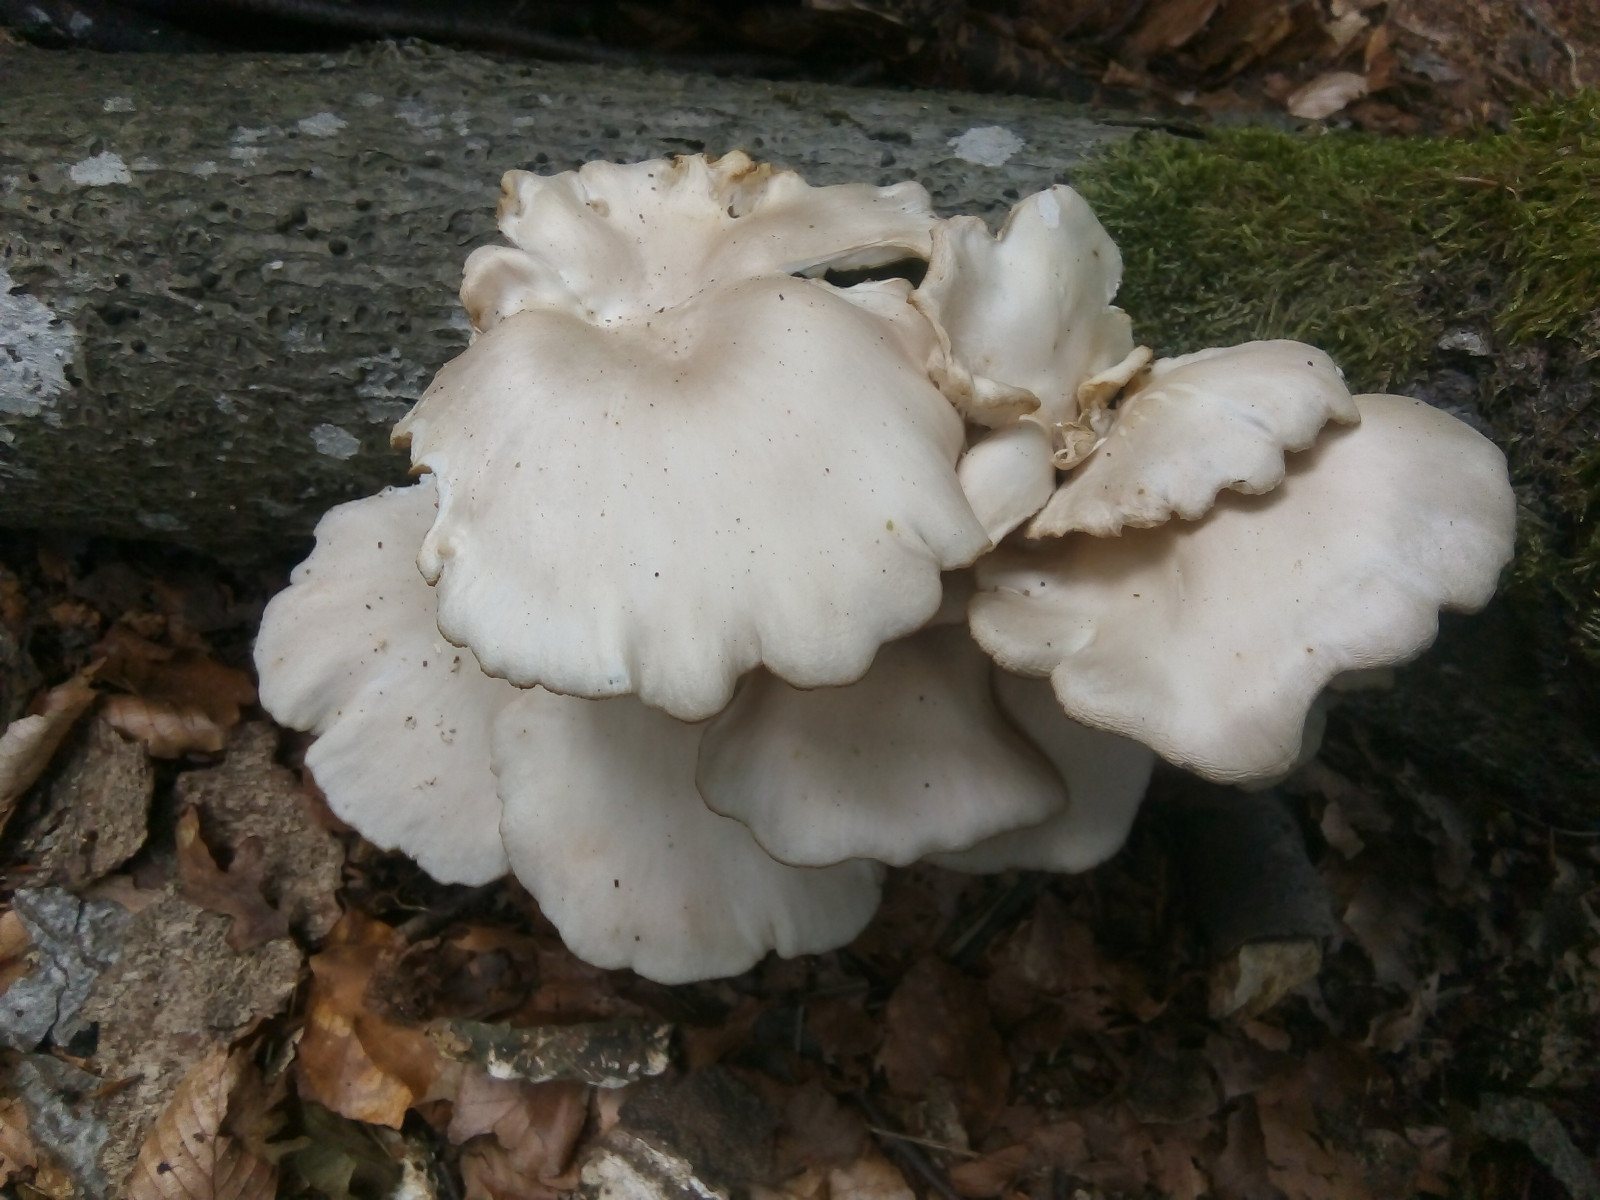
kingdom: Fungi
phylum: Basidiomycota
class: Agaricomycetes
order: Agaricales
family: Pleurotaceae
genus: Pleurotus
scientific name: Pleurotus pulmonarius
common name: sommer-østershat
